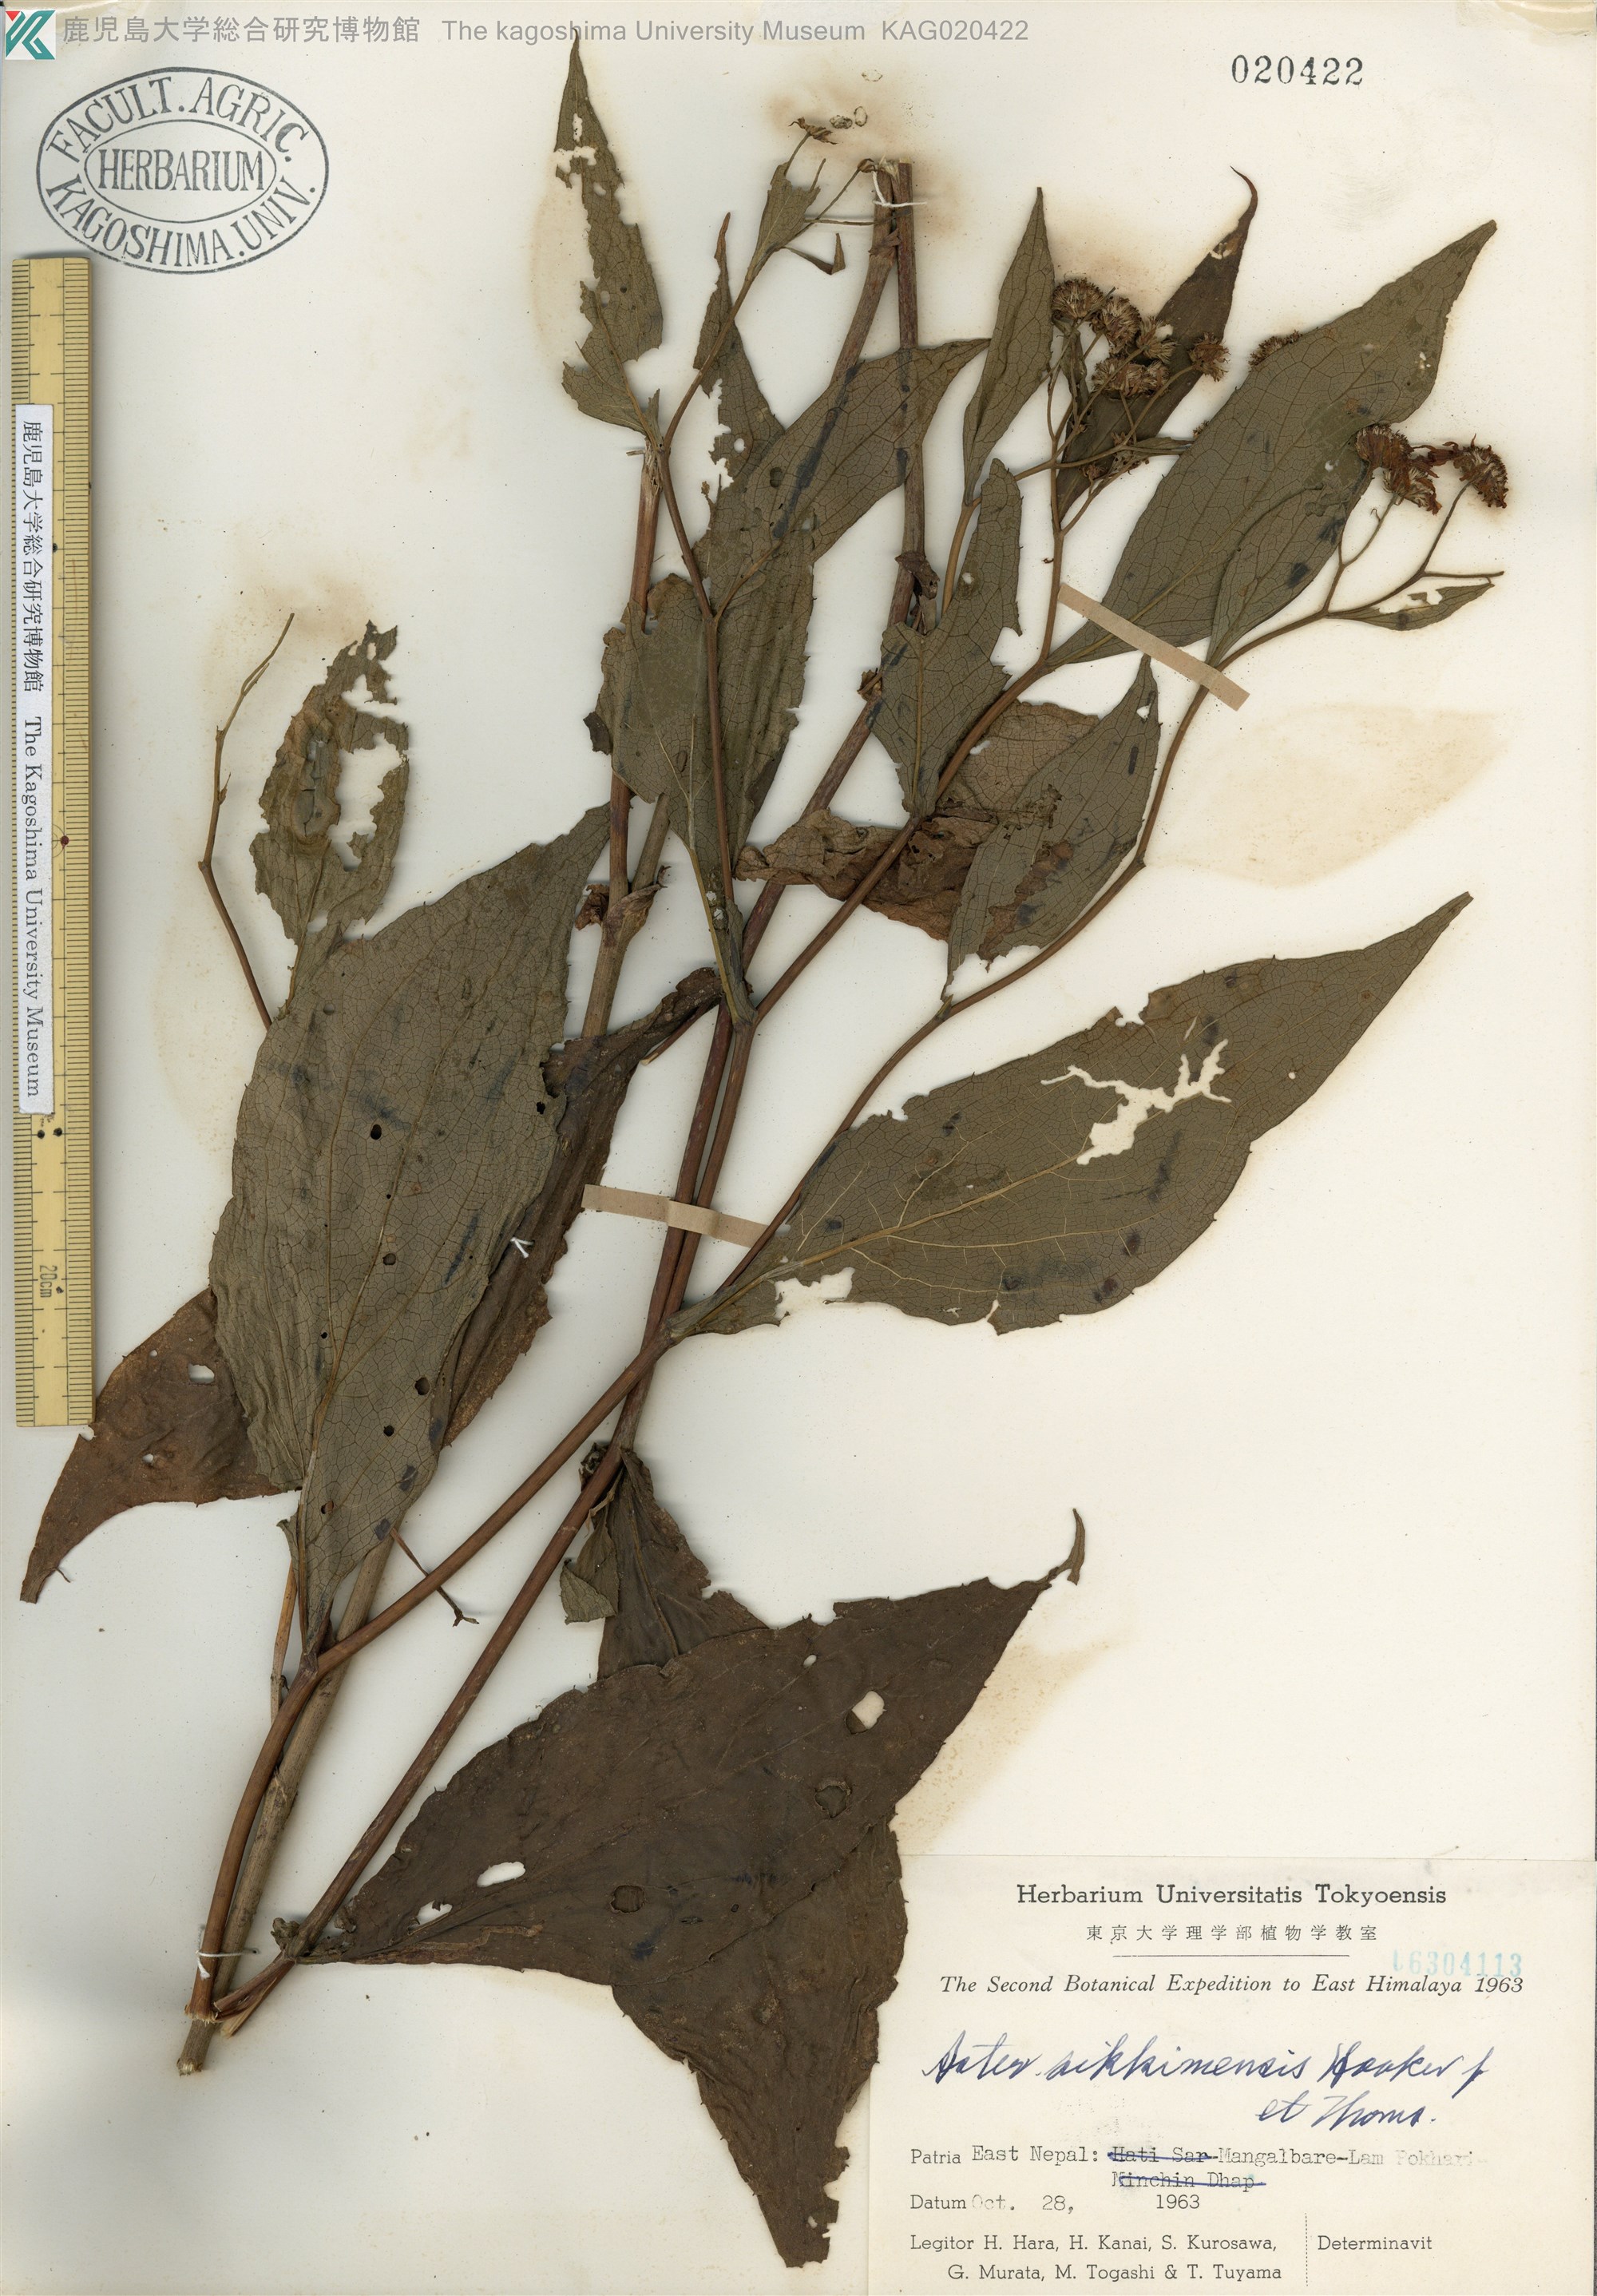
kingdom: Plantae
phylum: Tracheophyta
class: Magnoliopsida
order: Asterales
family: Asteraceae
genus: Metamyriactis
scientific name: Metamyriactis sikkimensis
